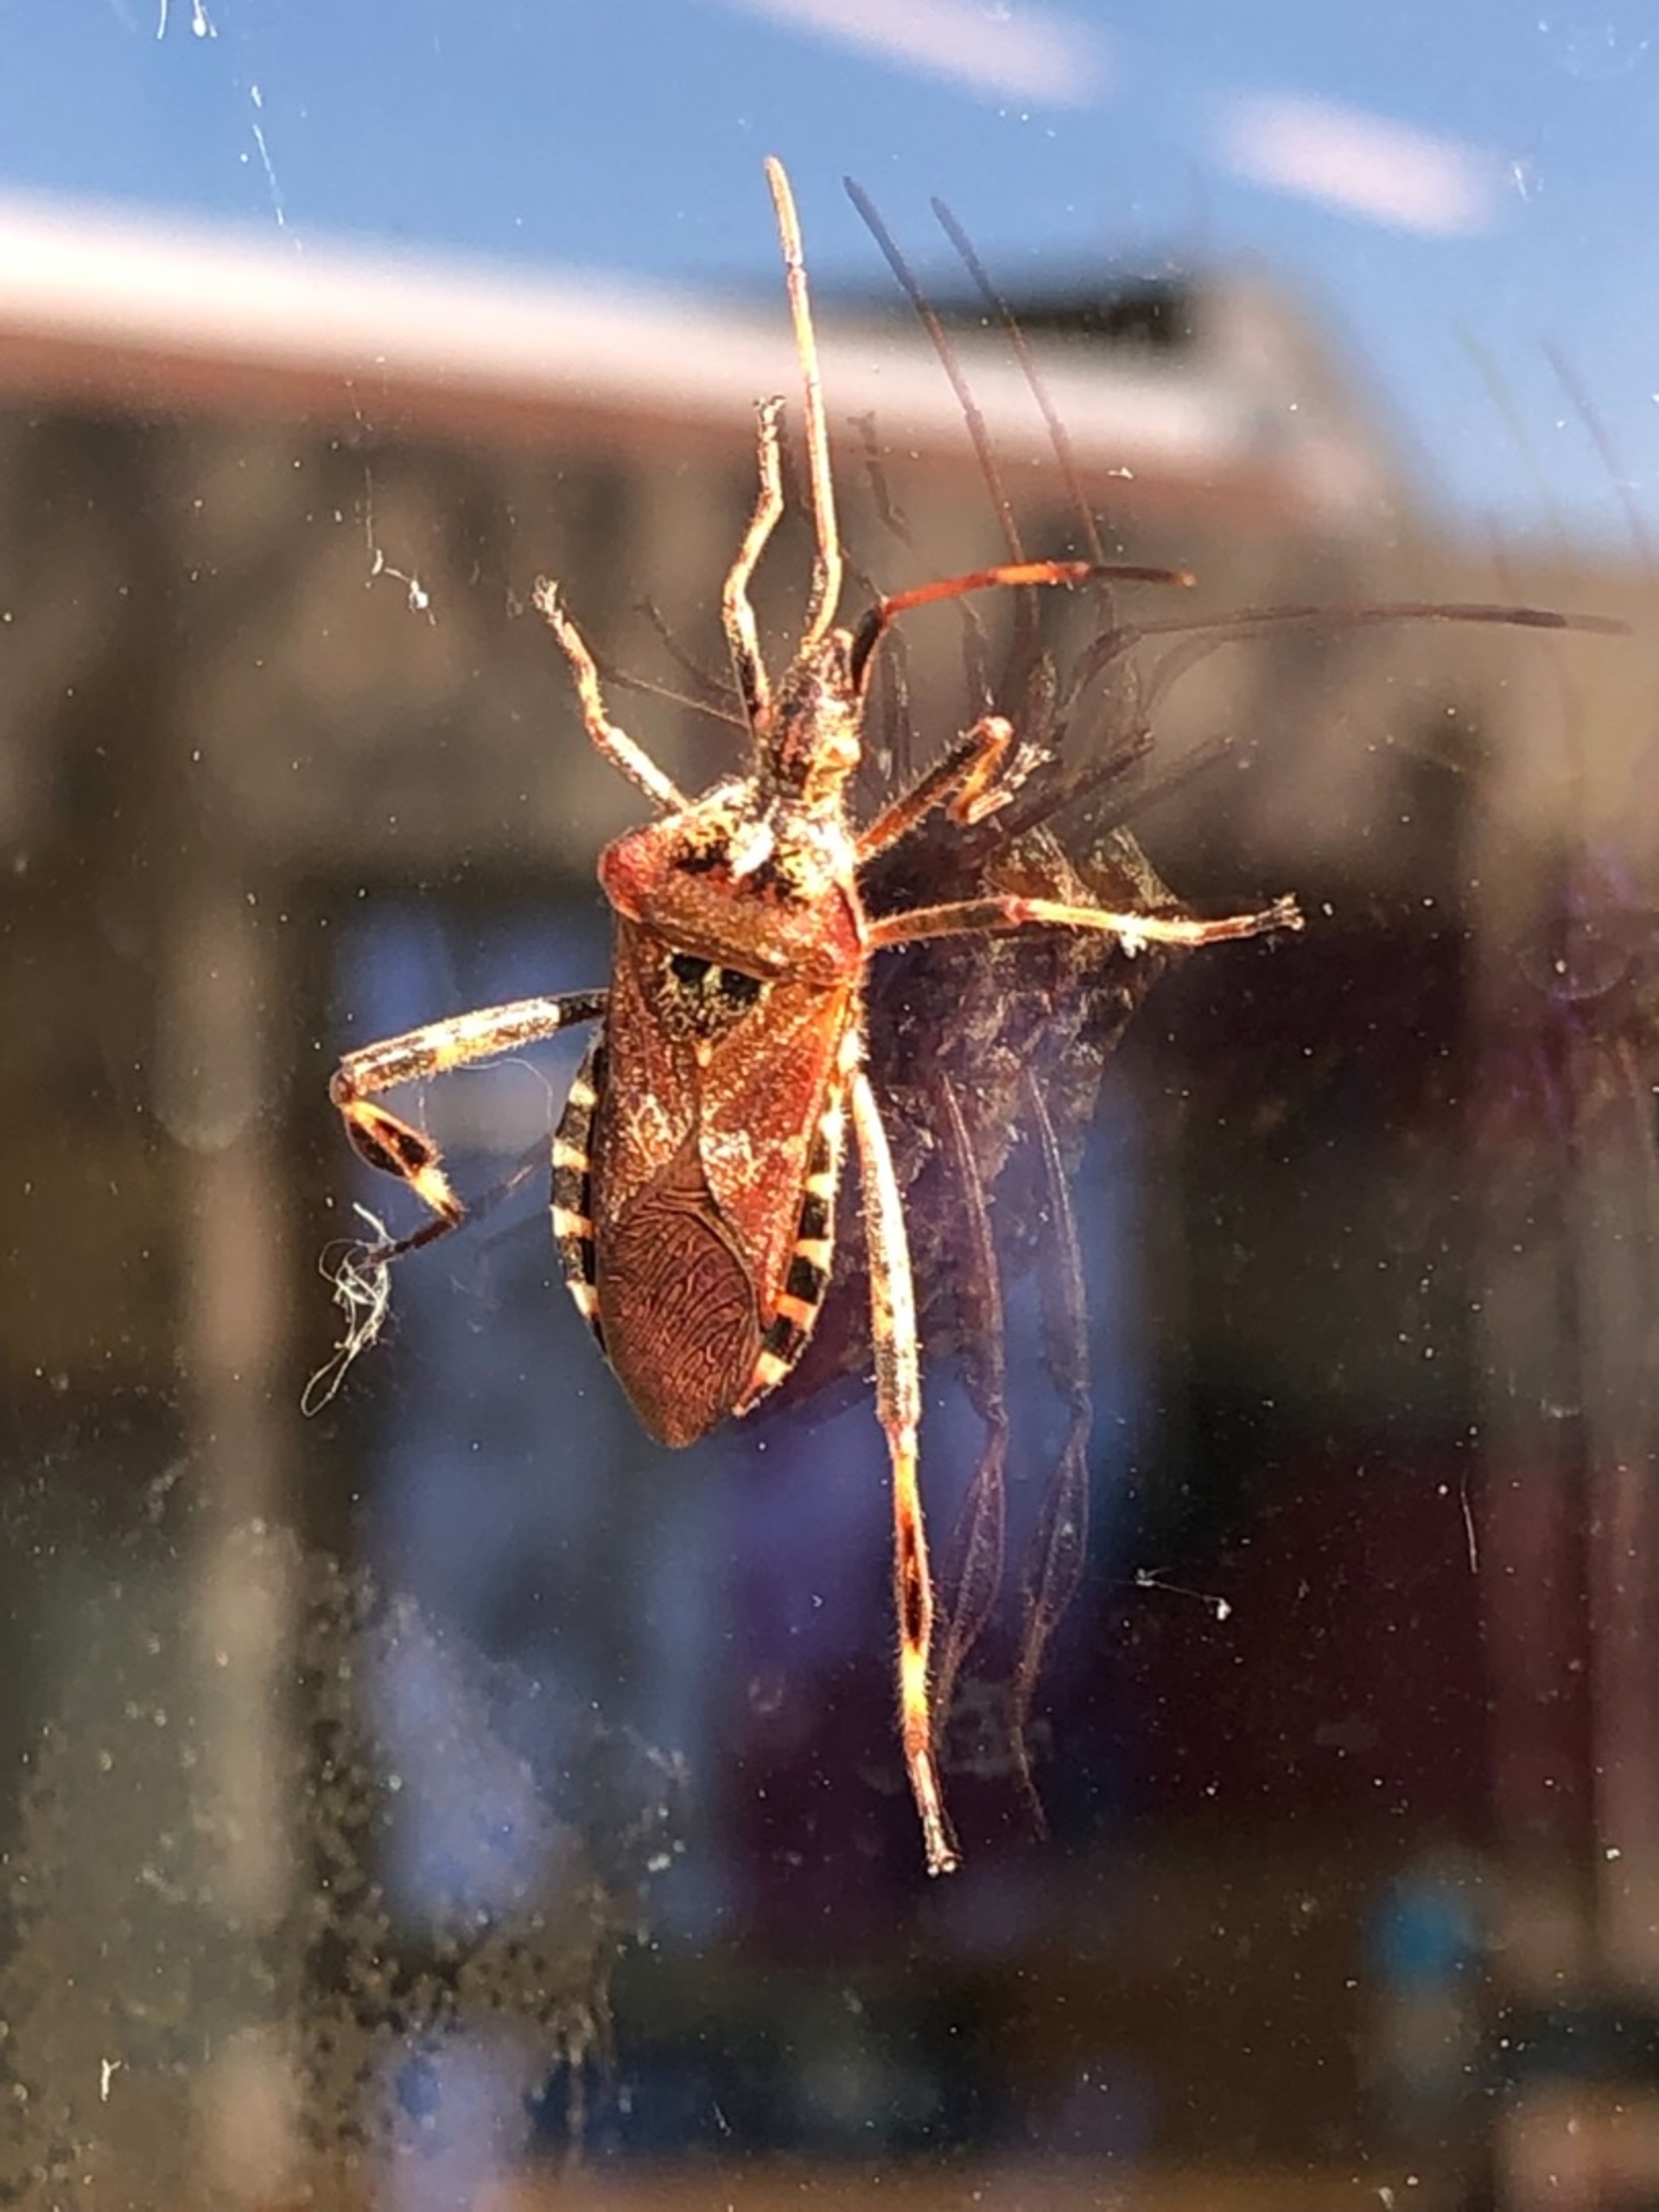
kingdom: Animalia
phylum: Arthropoda
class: Insecta
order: Hemiptera
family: Coreidae
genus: Leptoglossus
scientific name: Leptoglossus occidentalis
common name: Amerikansk fyrretæge
